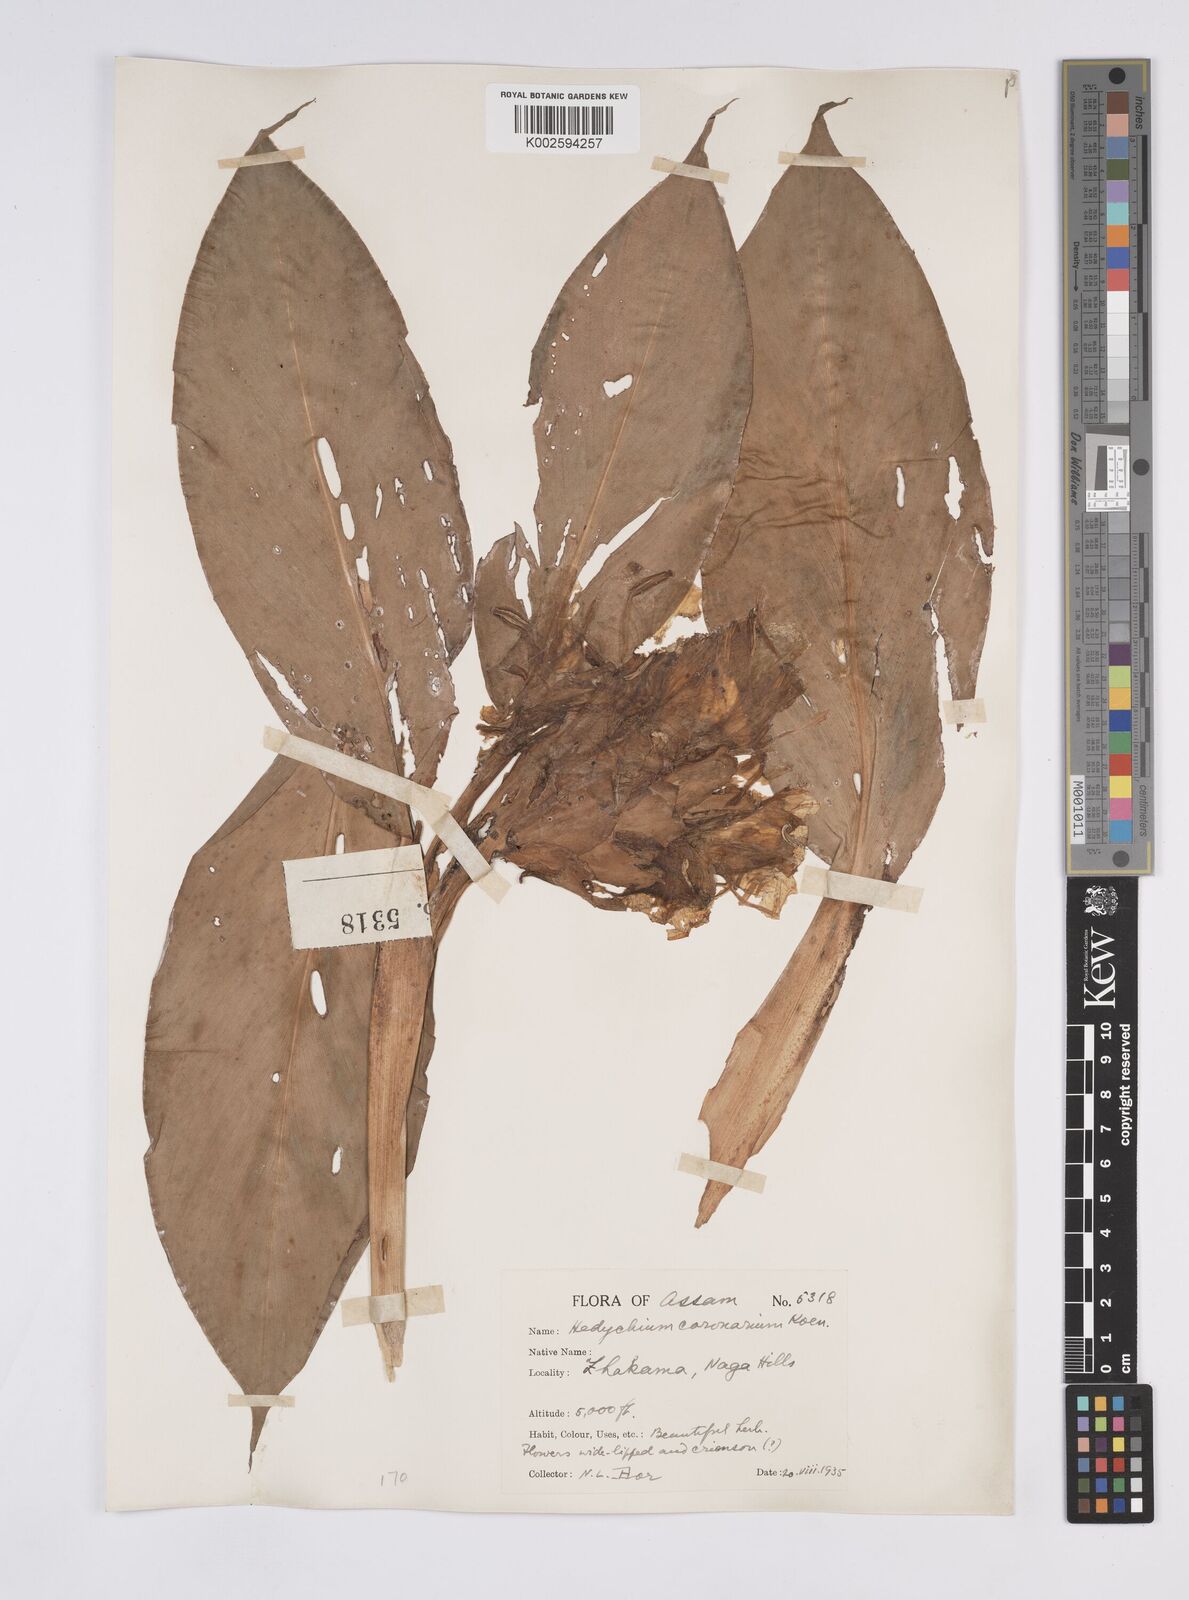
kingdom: Plantae
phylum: Tracheophyta
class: Liliopsida
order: Zingiberales
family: Zingiberaceae
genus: Hedychium
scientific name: Hedychium coronarium
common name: White garland-lily
